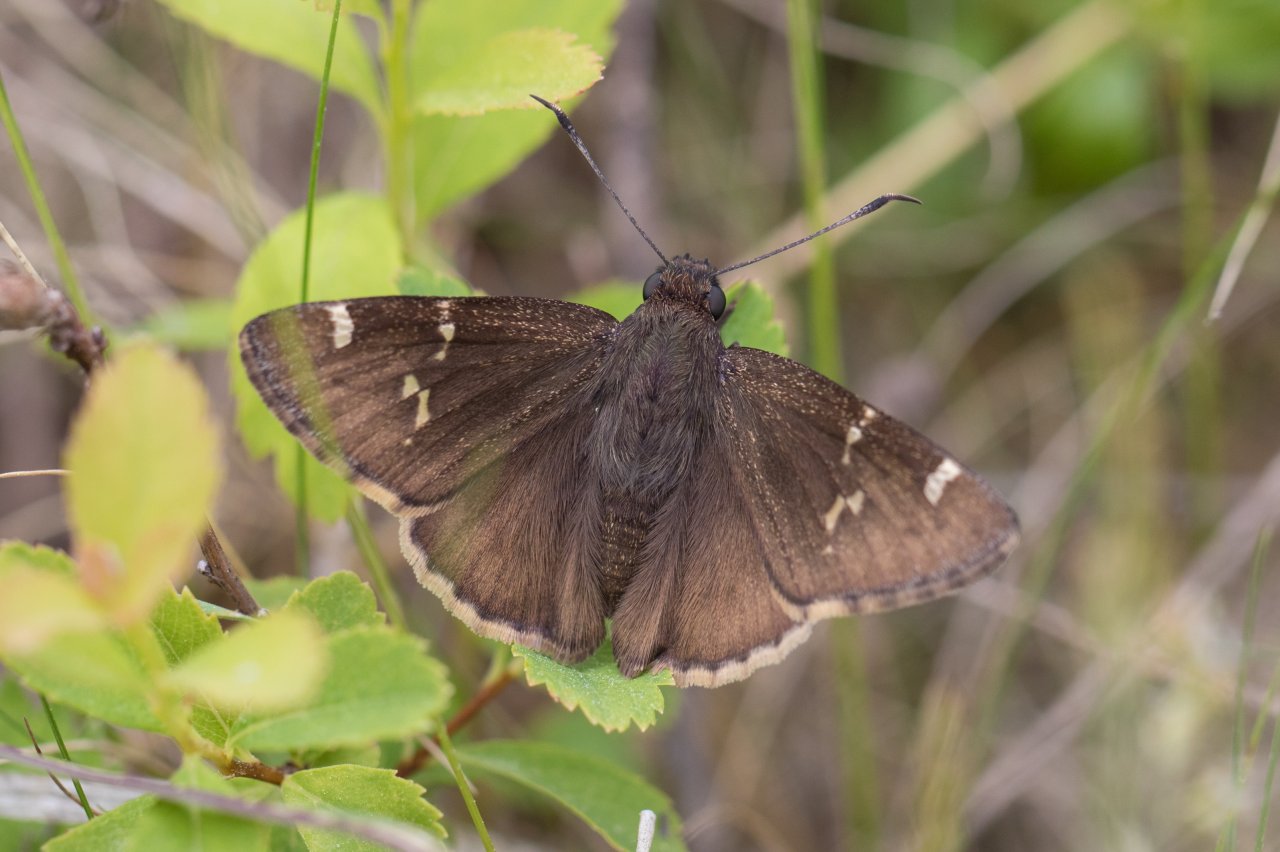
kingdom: Animalia
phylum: Arthropoda
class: Insecta
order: Lepidoptera
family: Hesperiidae
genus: Autochton
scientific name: Autochton
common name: Southern Cloudywing
